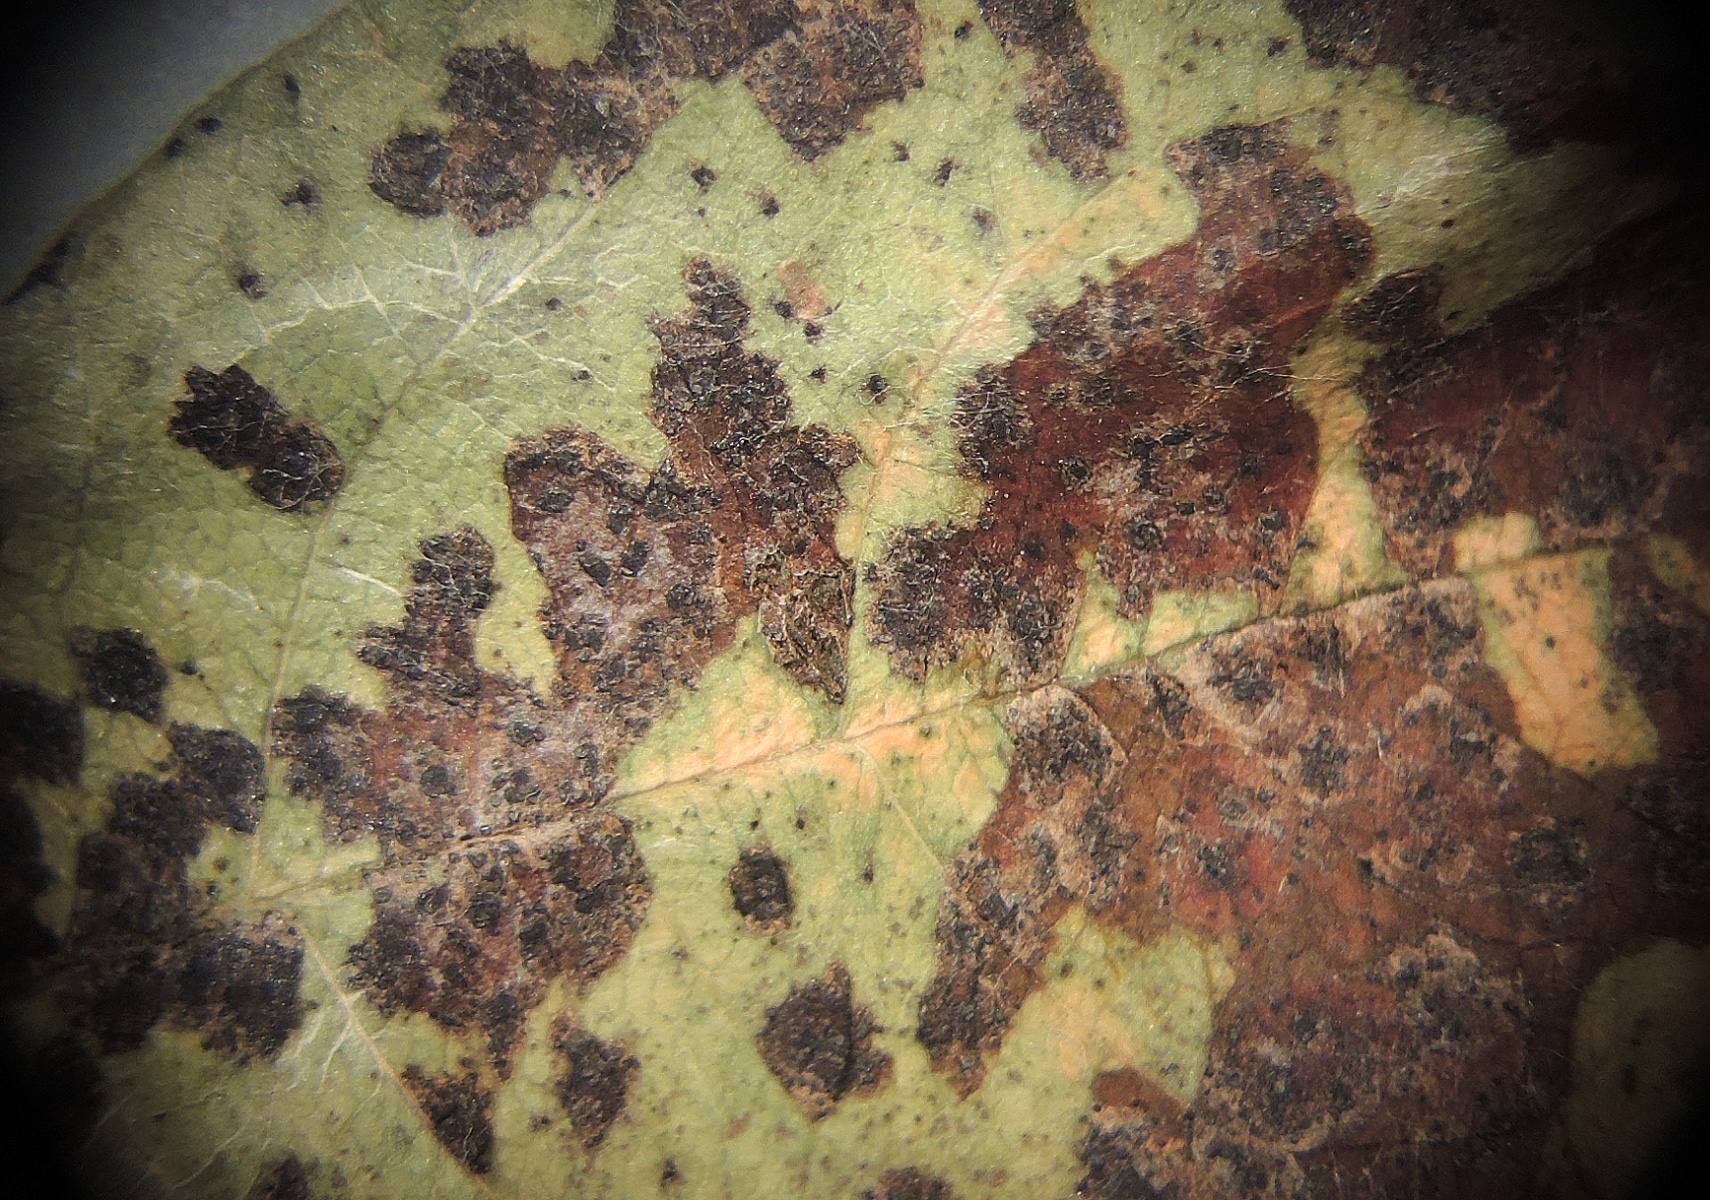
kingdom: Fungi
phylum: Ascomycota
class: Leotiomycetes
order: Helotiales
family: Drepanopezizaceae
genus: Diplocarpon
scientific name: Diplocarpon mespili
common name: Quince leaf blight
